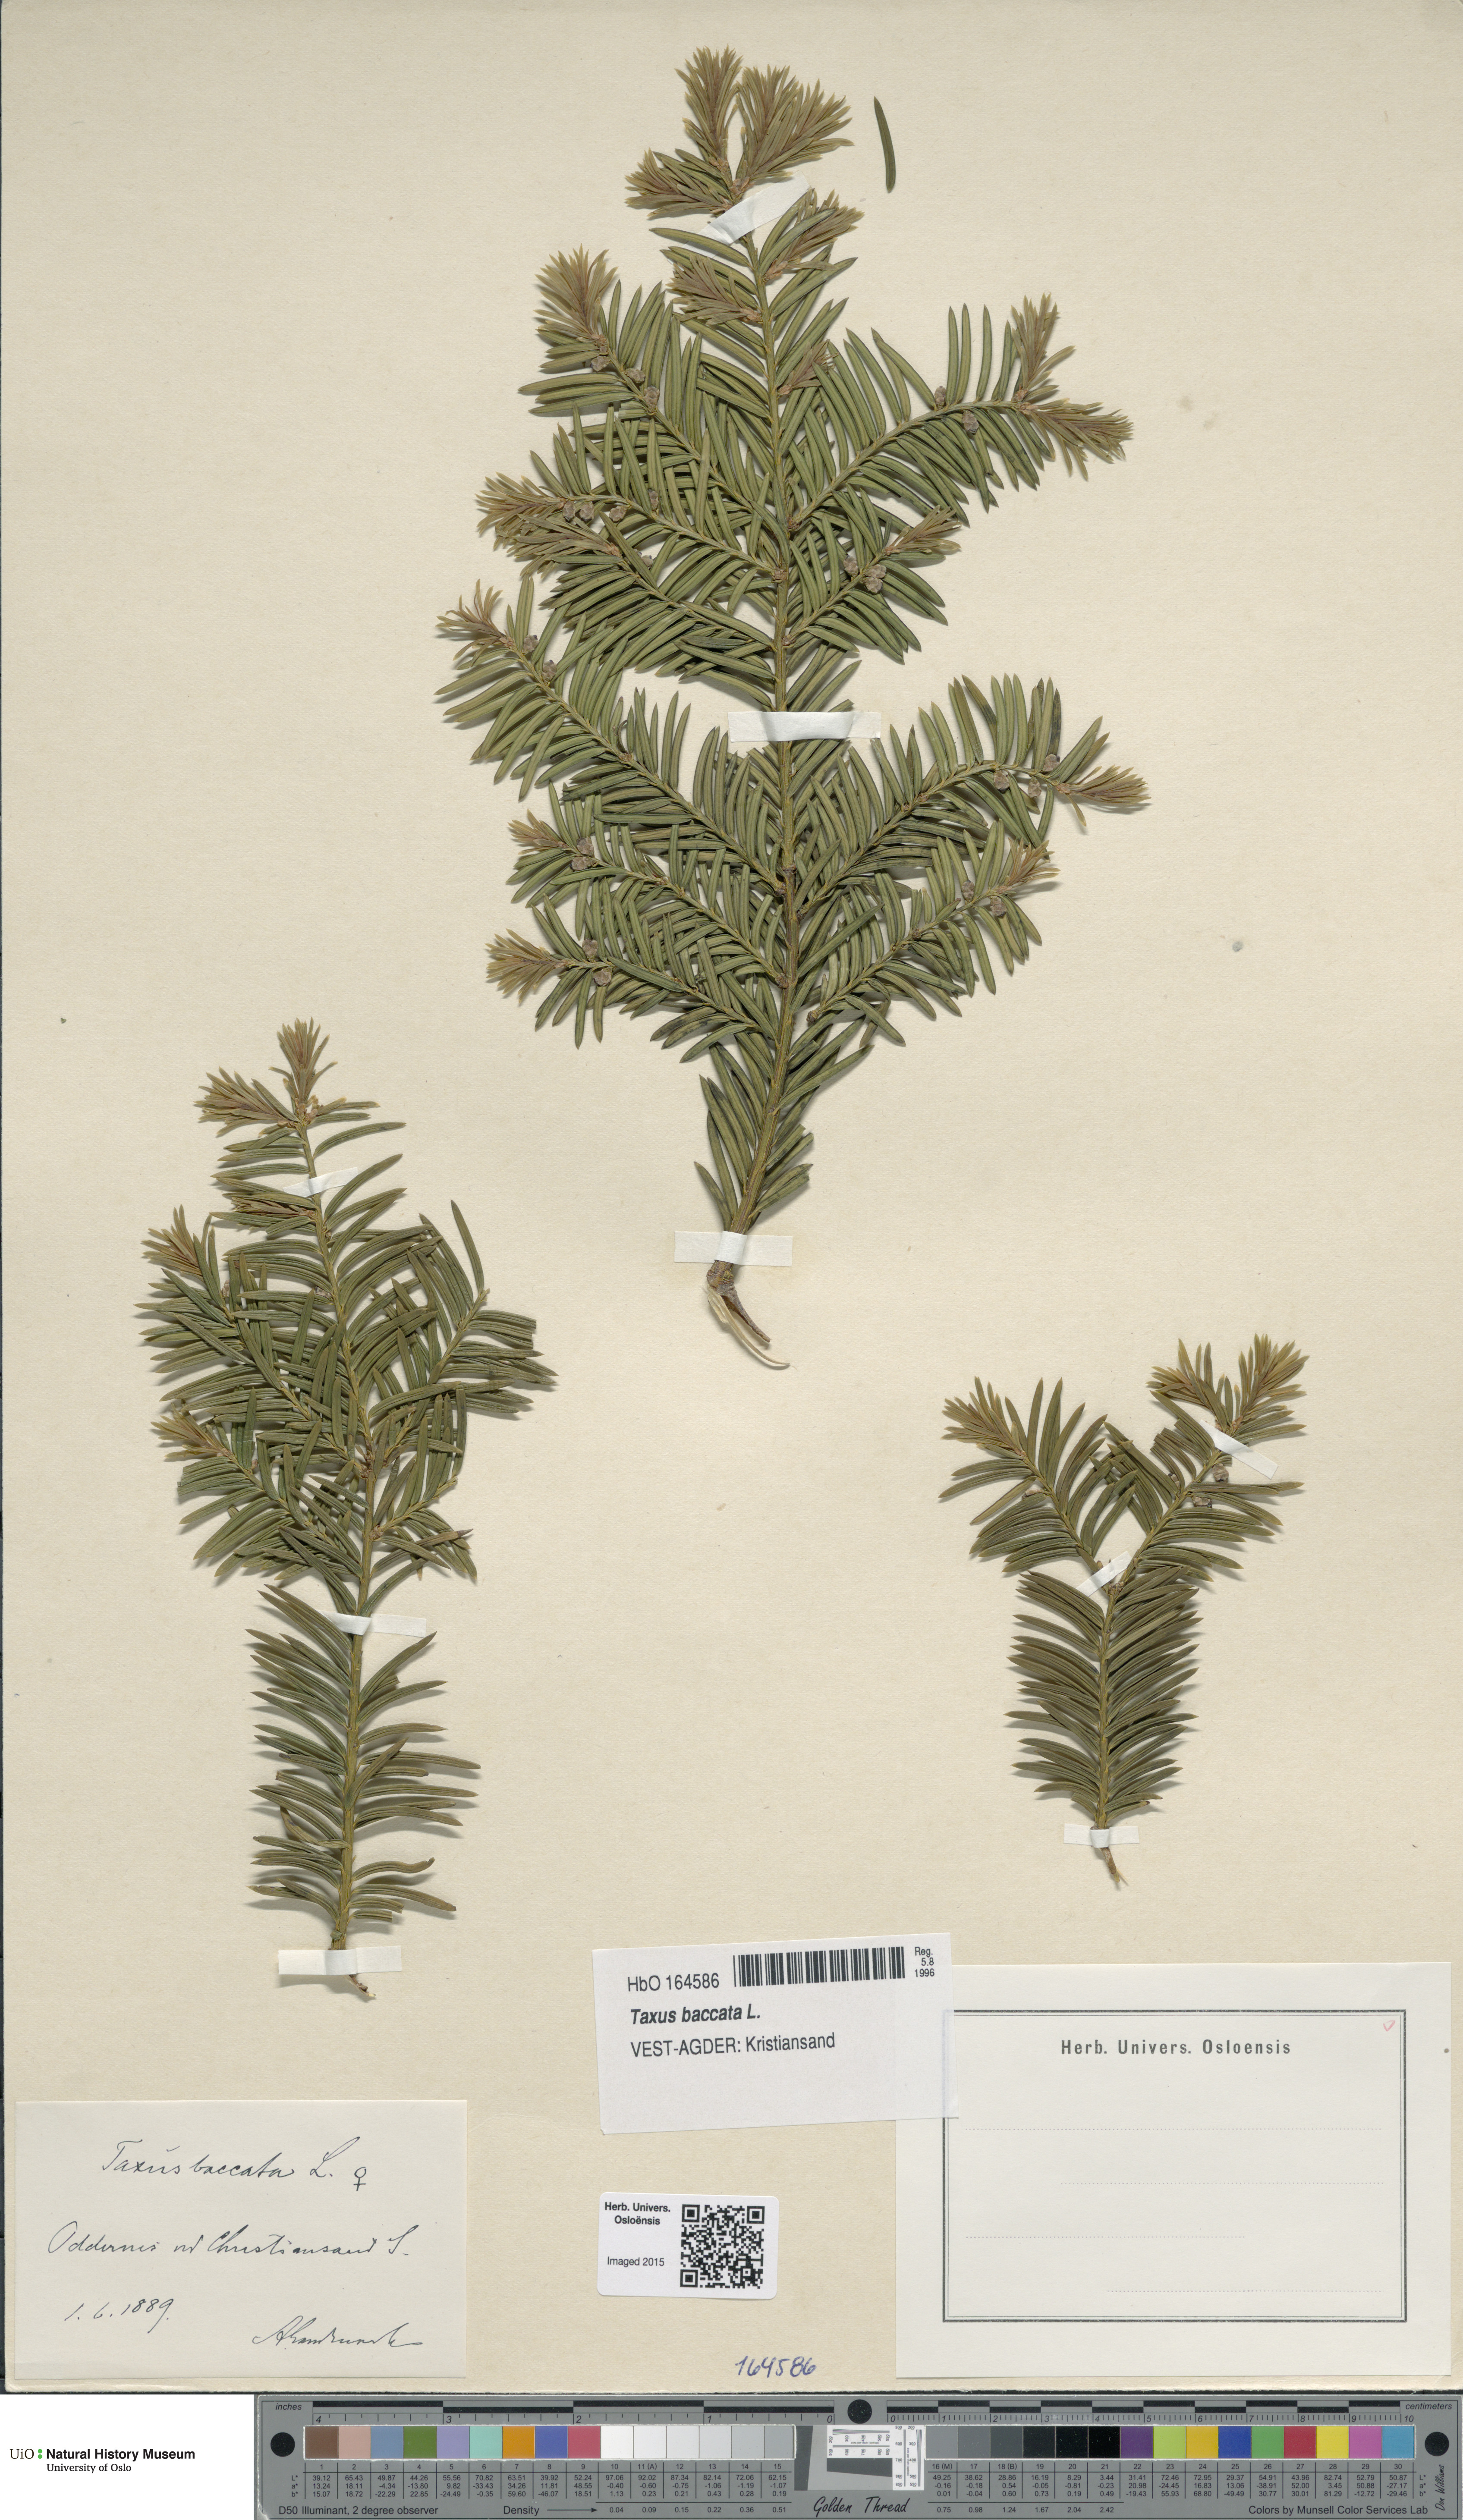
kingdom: Plantae
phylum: Tracheophyta
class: Pinopsida
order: Pinales
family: Taxaceae
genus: Taxus
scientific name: Taxus baccata
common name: Yew
